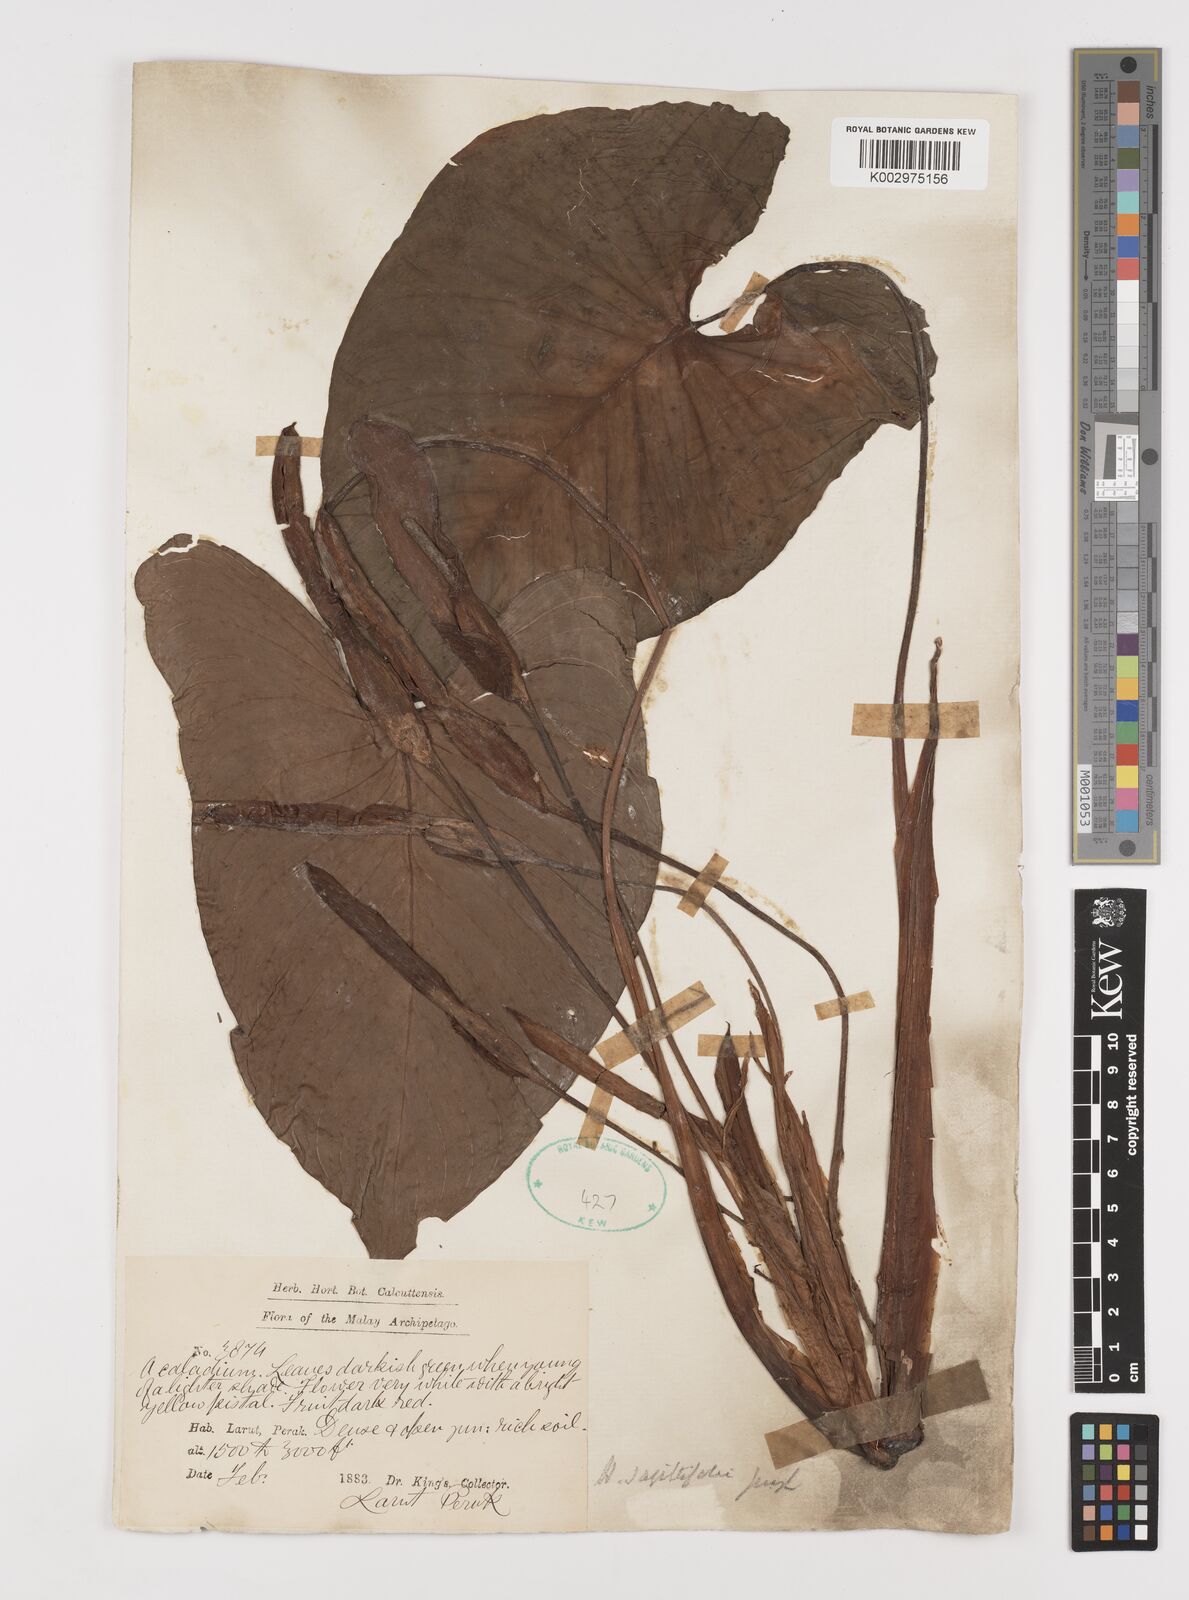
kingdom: Plantae
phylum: Tracheophyta
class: Liliopsida
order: Alismatales
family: Araceae
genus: Homalomena
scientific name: Homalomena rostrata
